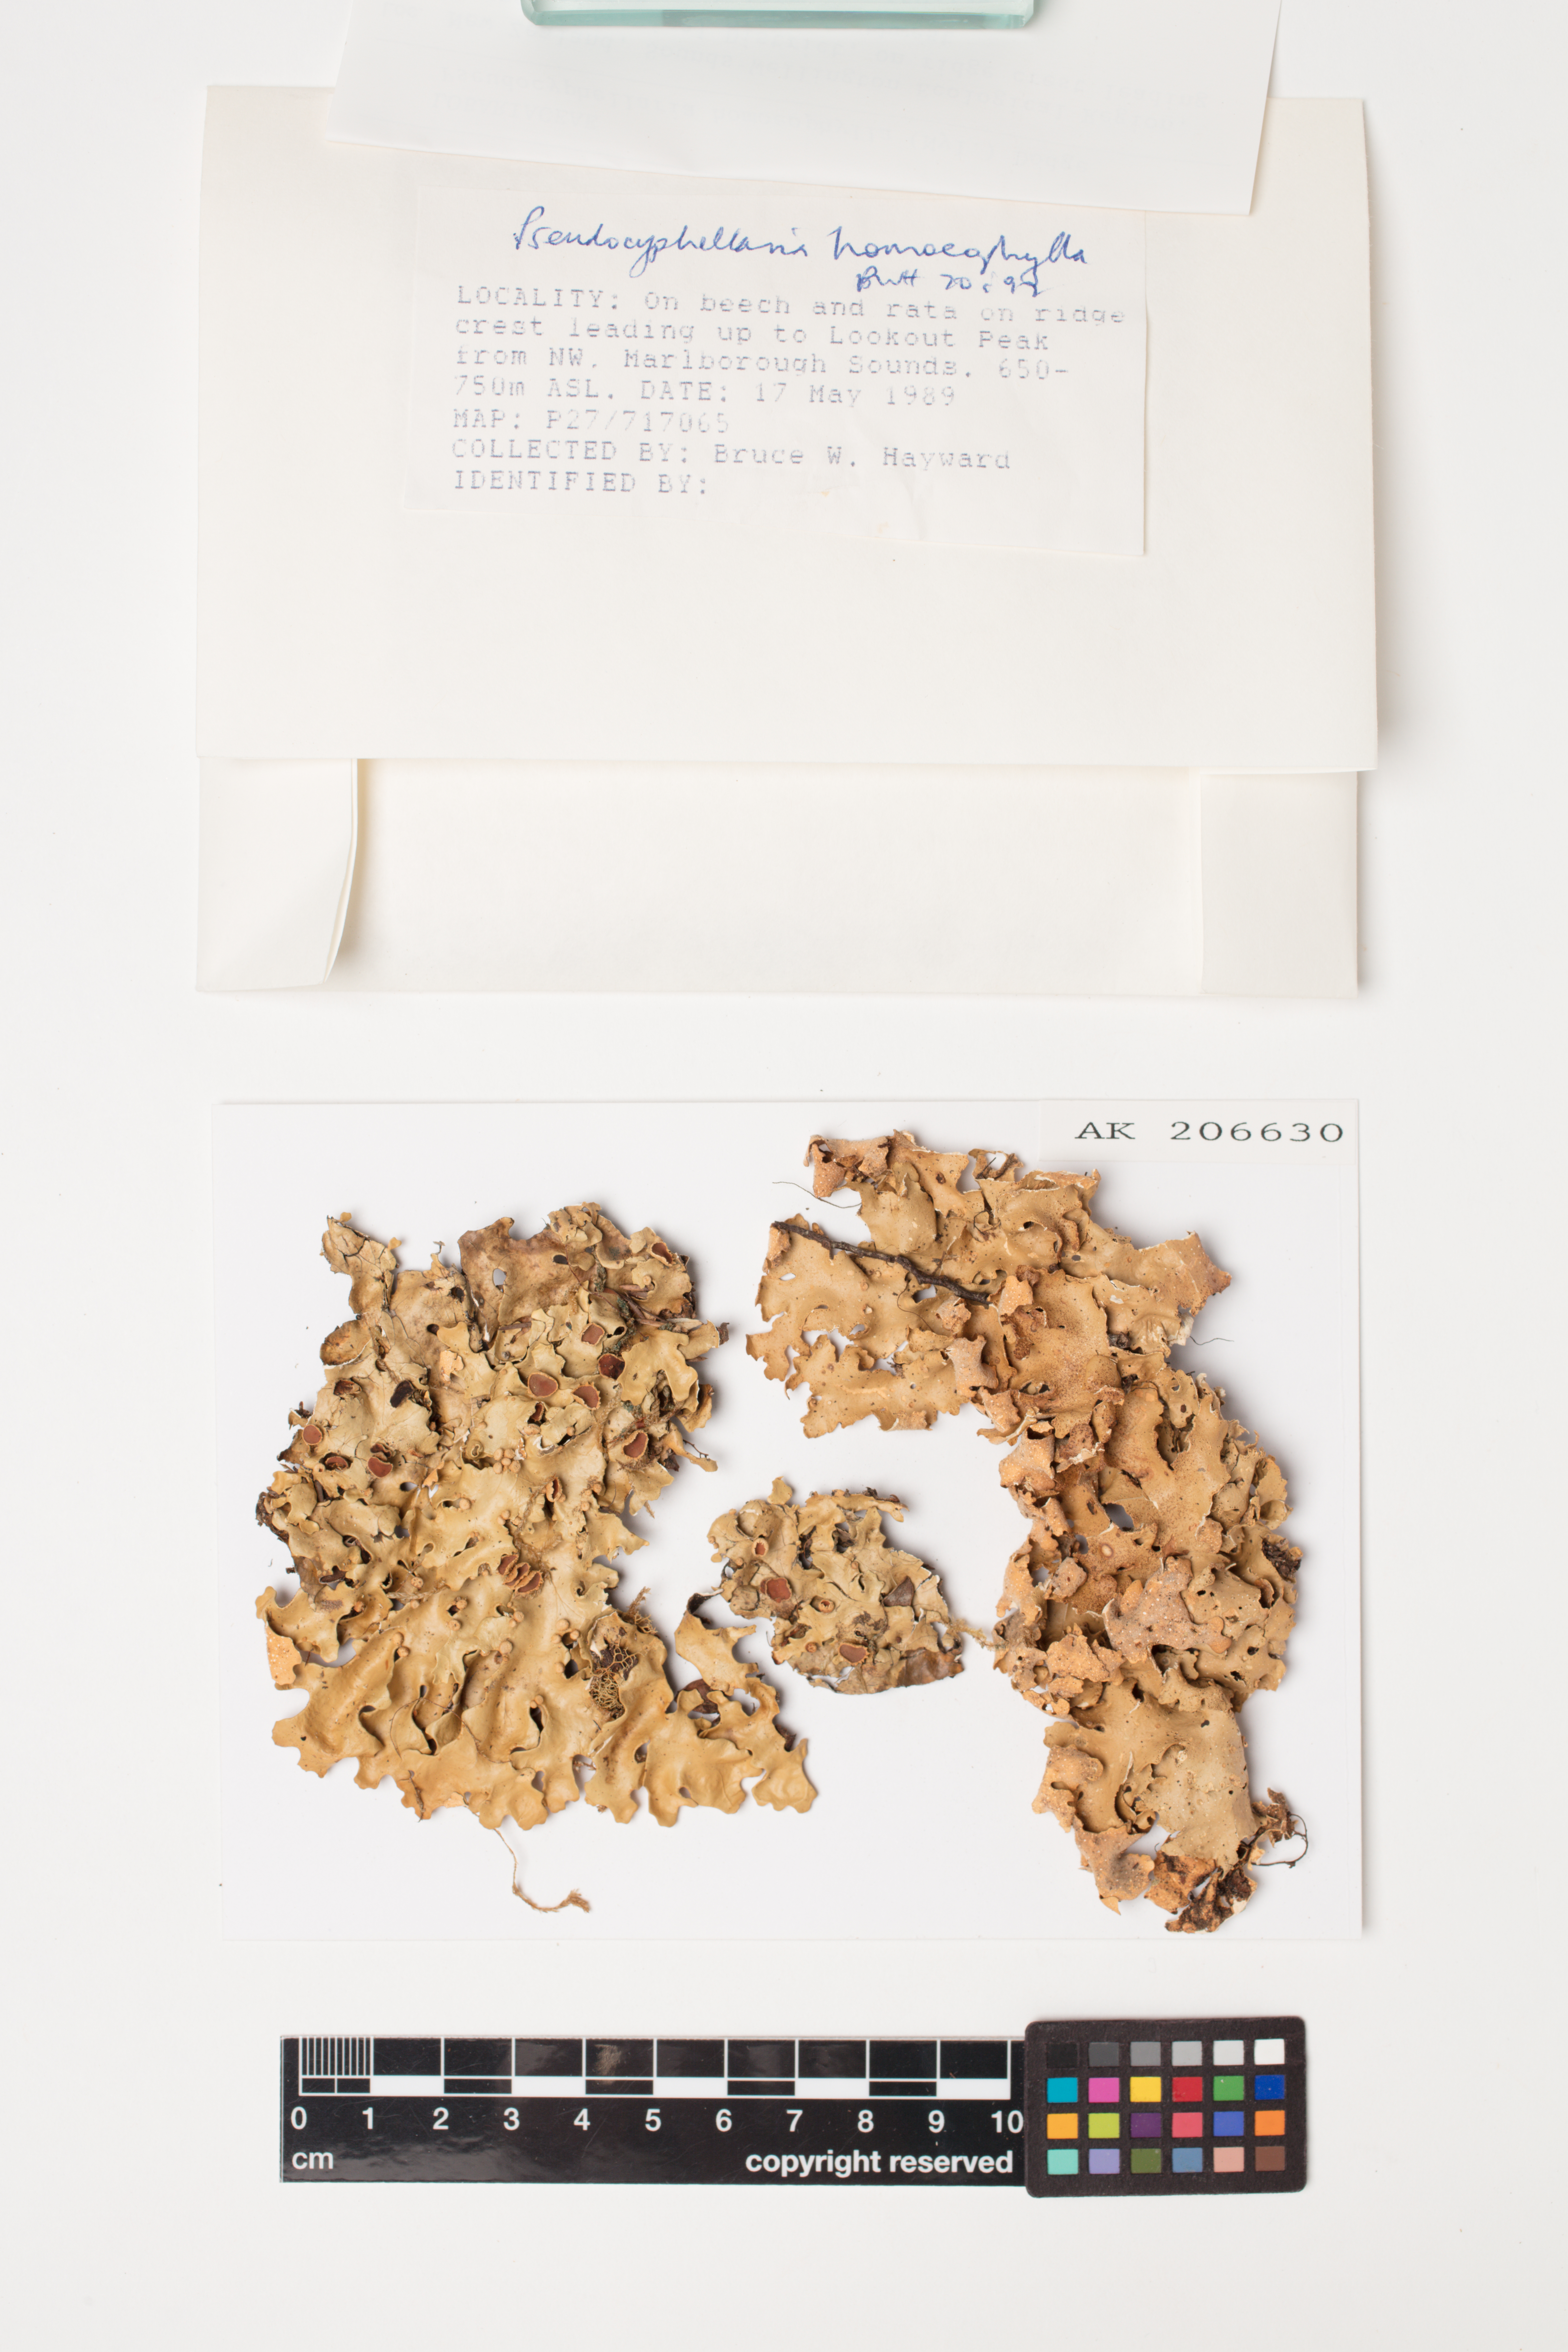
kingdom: Fungi
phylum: Ascomycota
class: Lecanoromycetes
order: Peltigerales
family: Lobariaceae
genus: Pseudocyphellaria
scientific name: Pseudocyphellaria homeophylla
